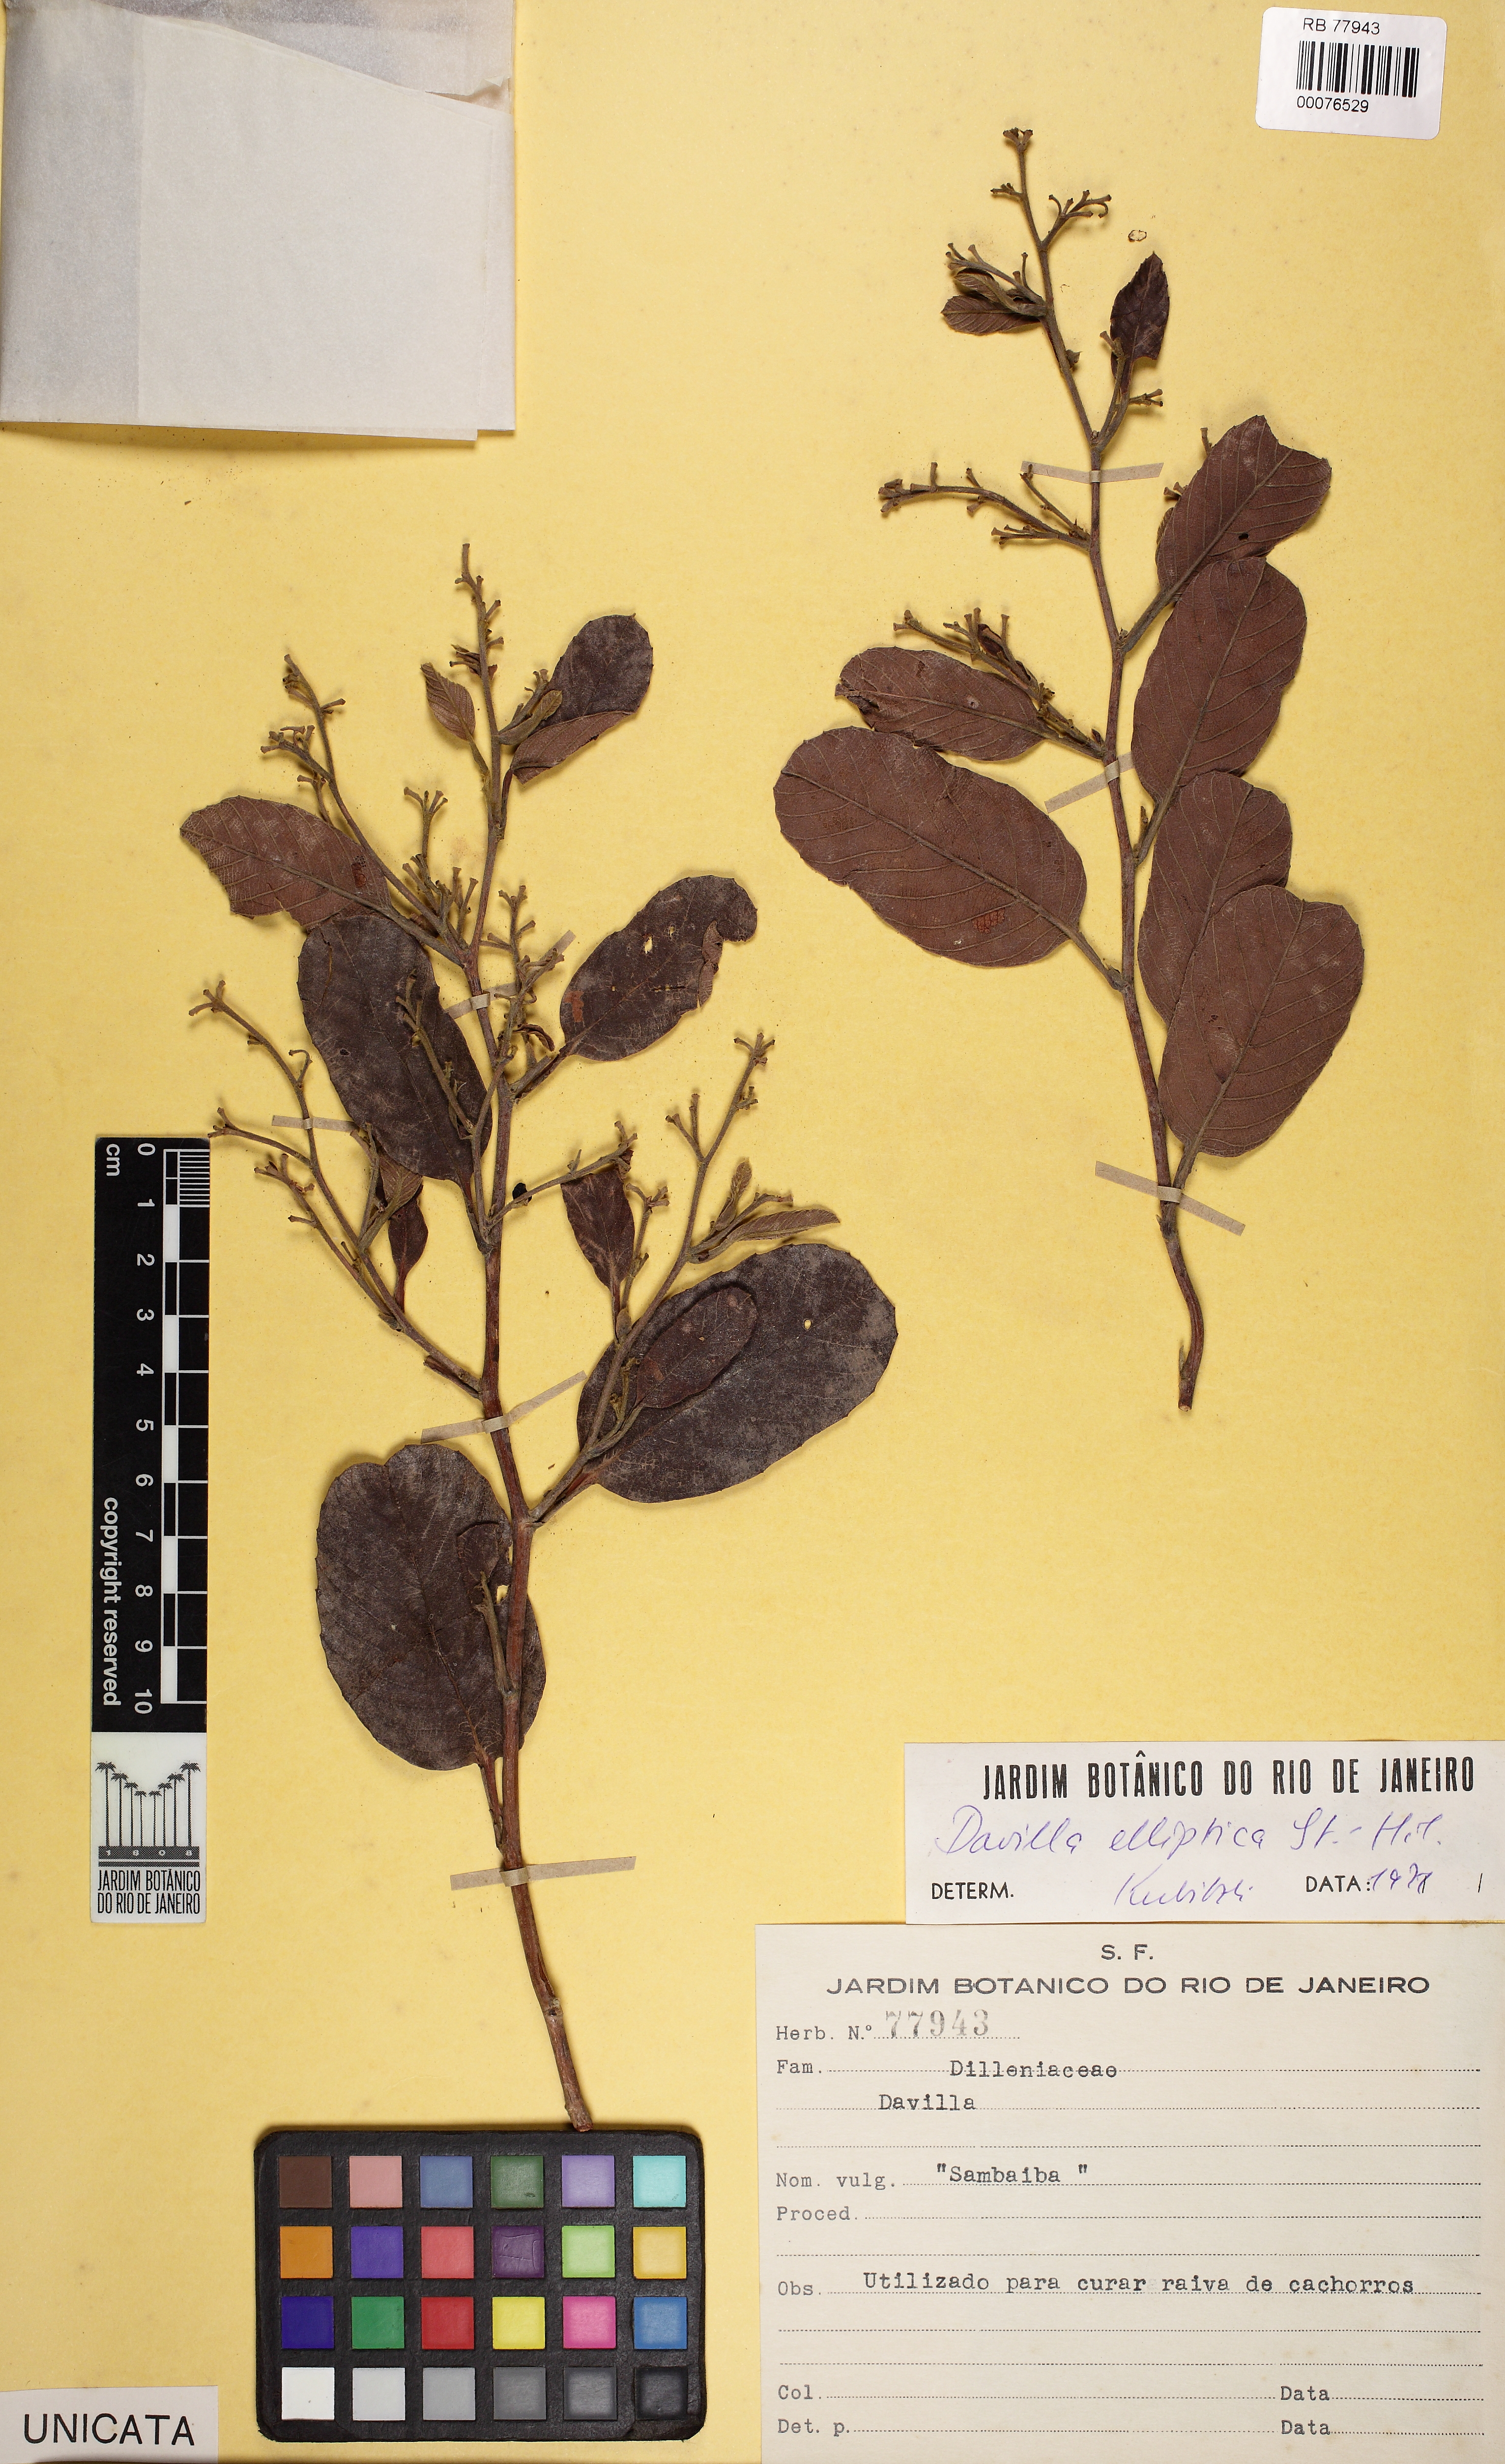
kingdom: Plantae
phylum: Tracheophyta
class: Magnoliopsida
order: Dilleniales
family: Dilleniaceae
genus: Davilla
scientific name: Davilla elliptica
